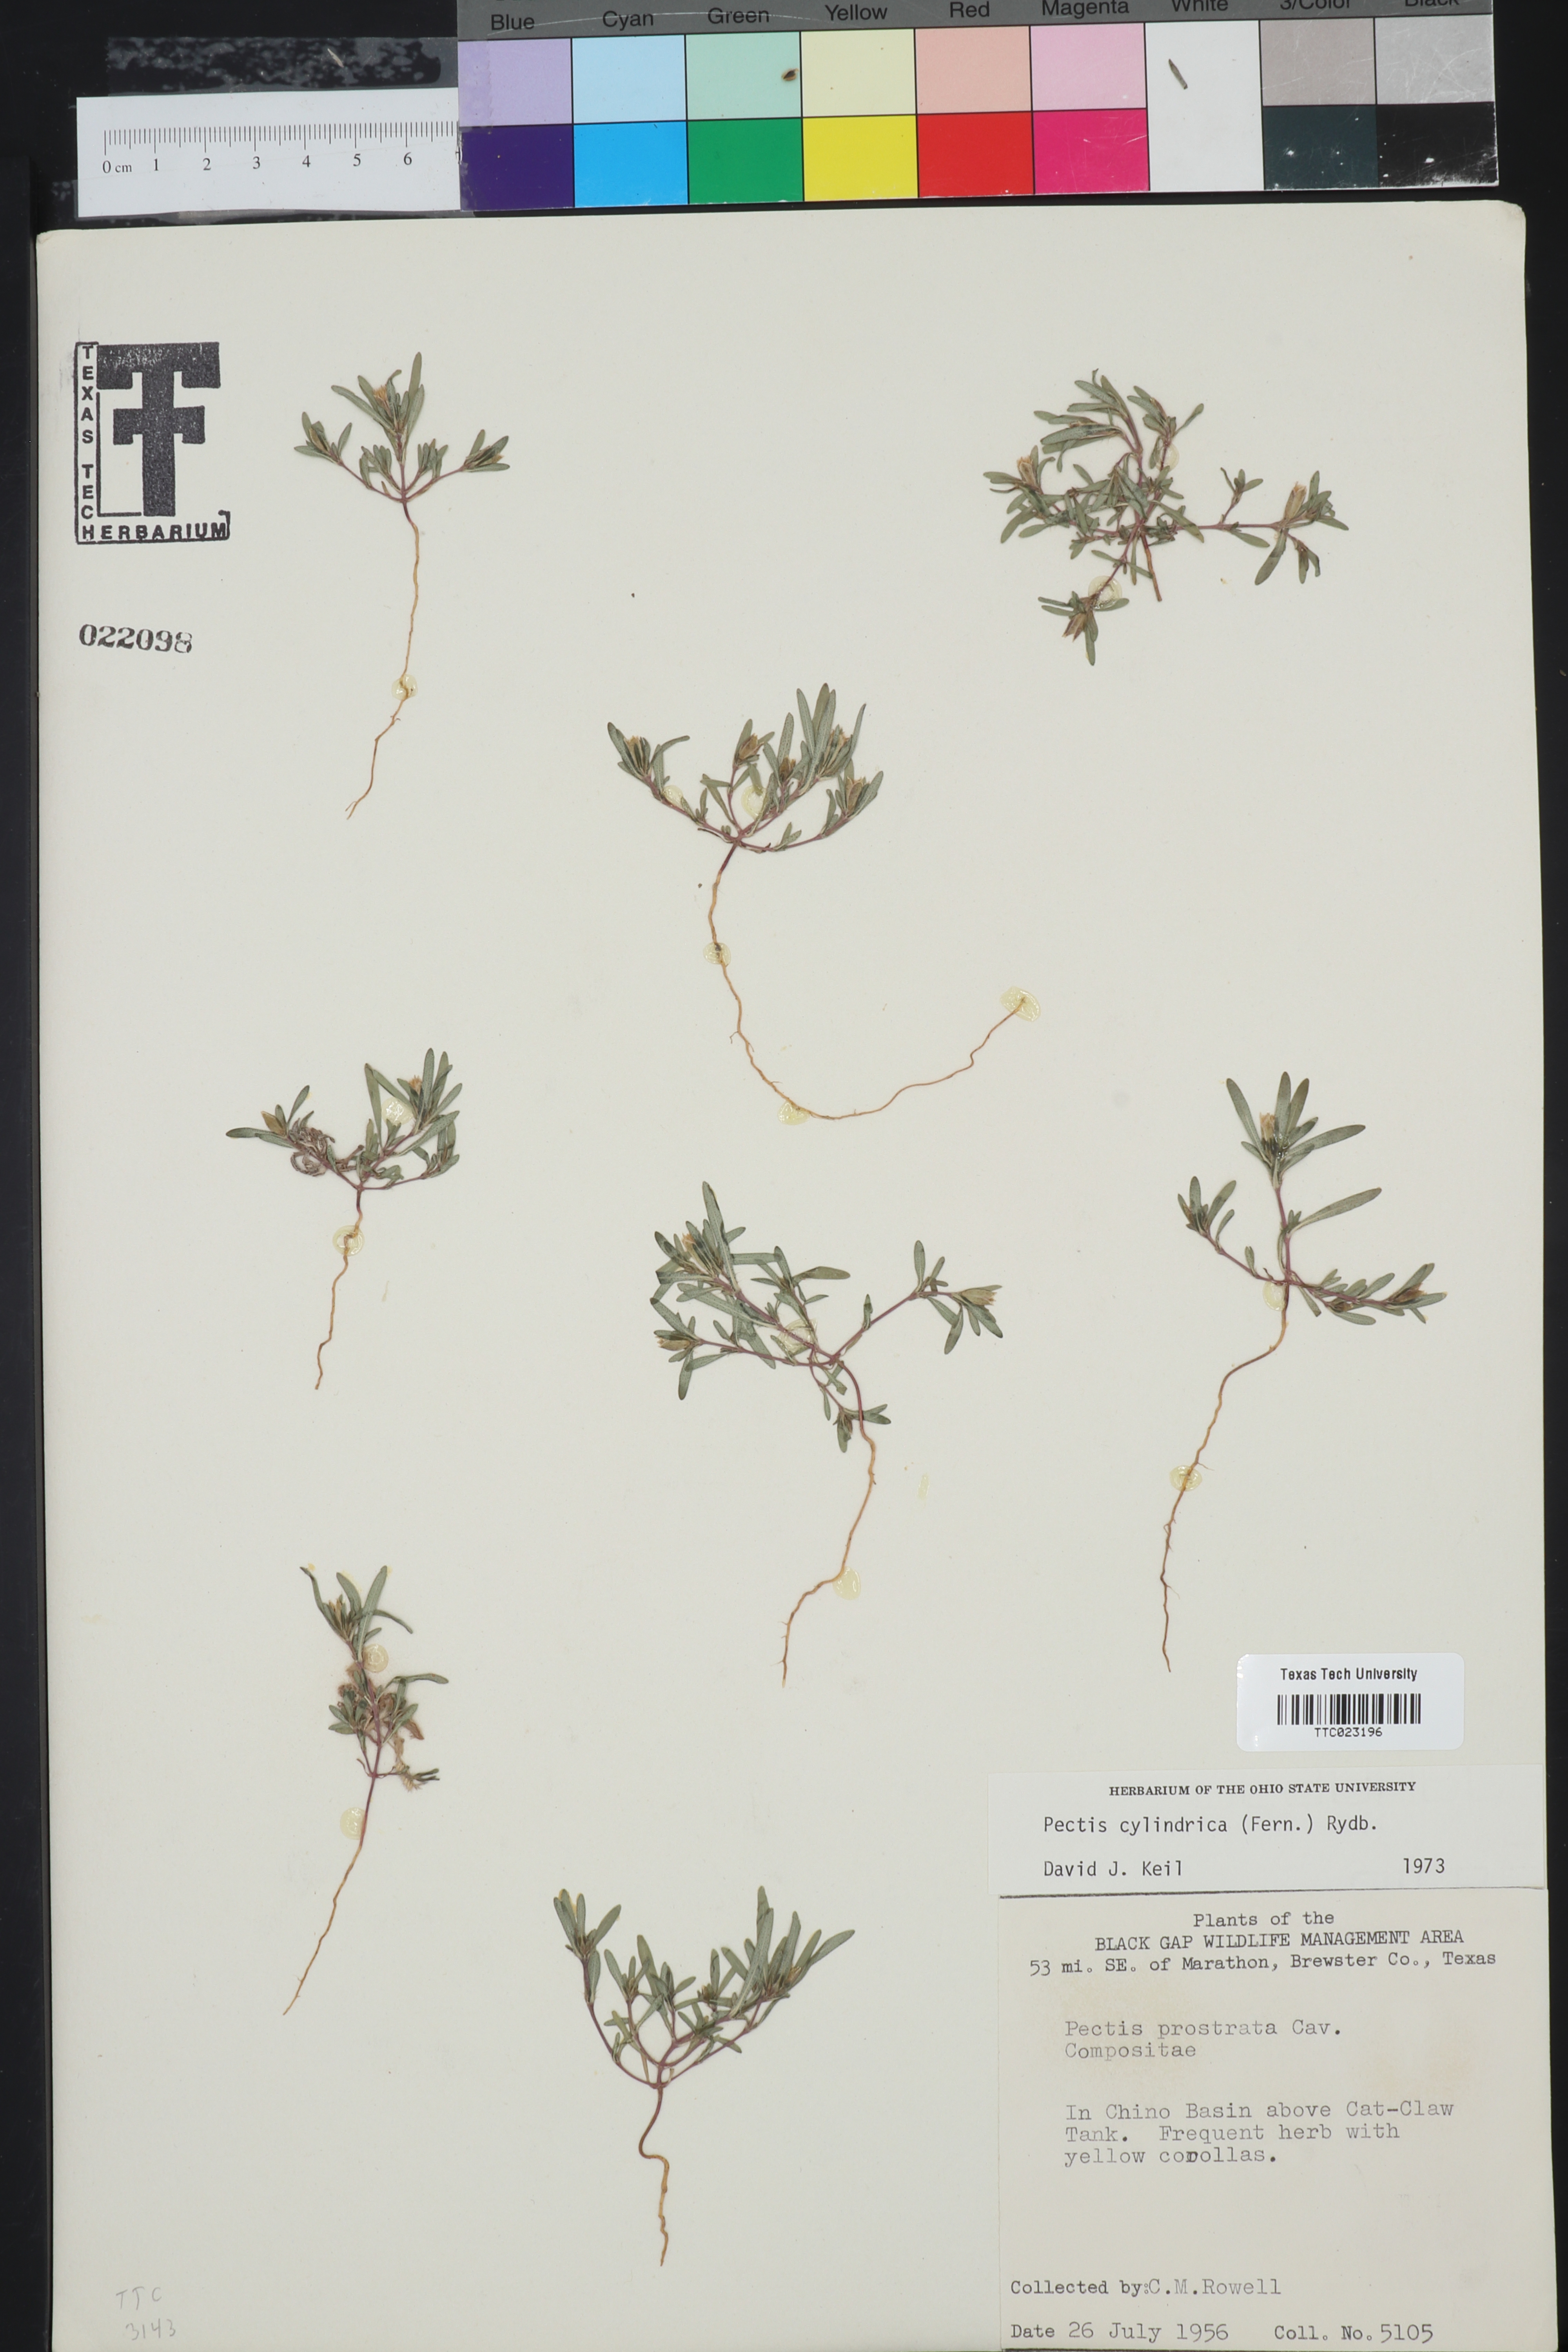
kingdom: Plantae
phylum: Tracheophyta
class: Magnoliopsida
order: Asterales
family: Asteraceae
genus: Pectis
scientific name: Pectis cylindrica
